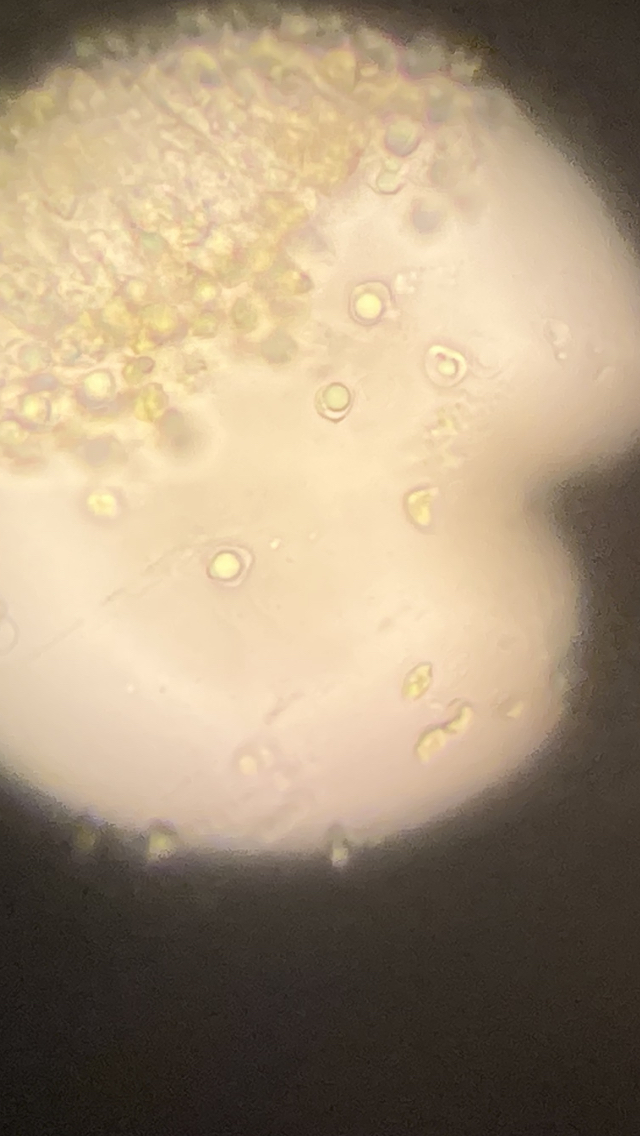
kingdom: Fungi
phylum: Basidiomycota
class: Agaricomycetes
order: Agaricales
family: Clavariaceae
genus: Clavulinopsis
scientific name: Clavulinopsis laeticolor
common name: flamme-køllesvamp
